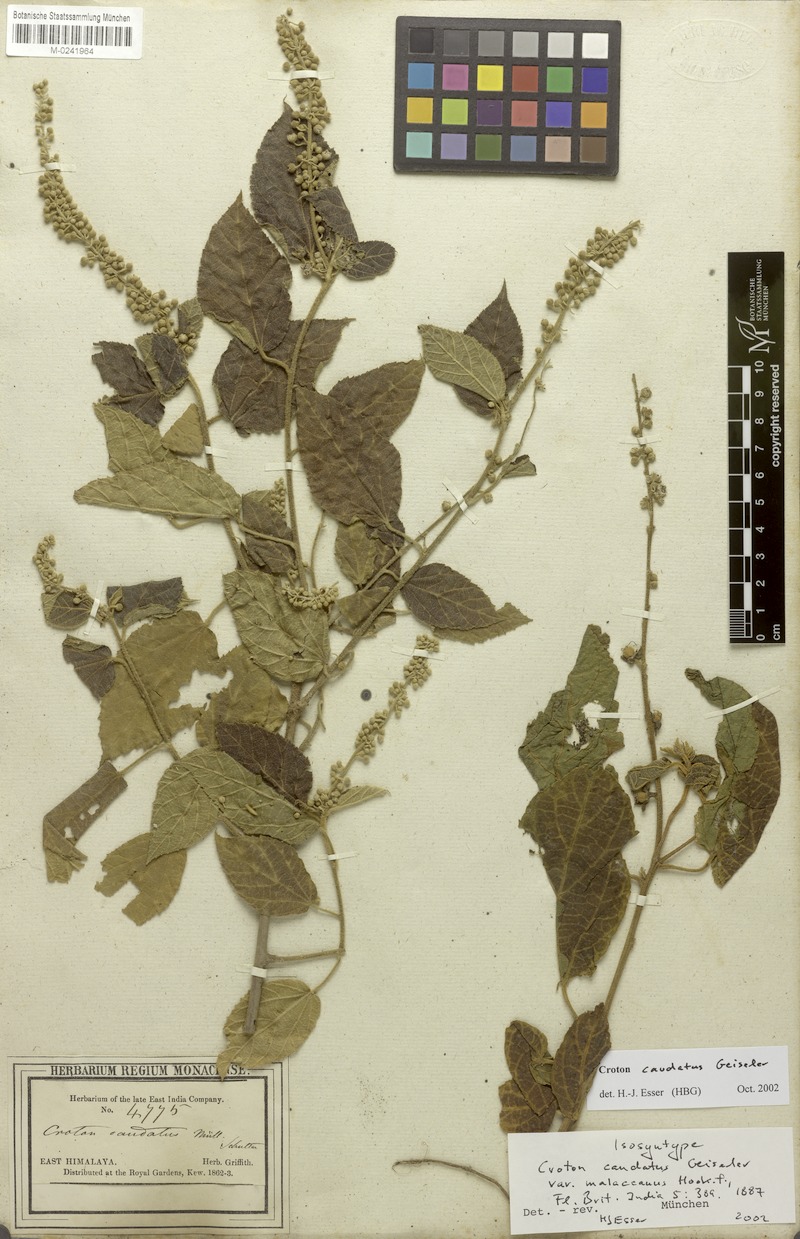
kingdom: Plantae
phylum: Tracheophyta
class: Magnoliopsida
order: Malpighiales
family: Euphorbiaceae
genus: Croton
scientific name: Croton caudatus
